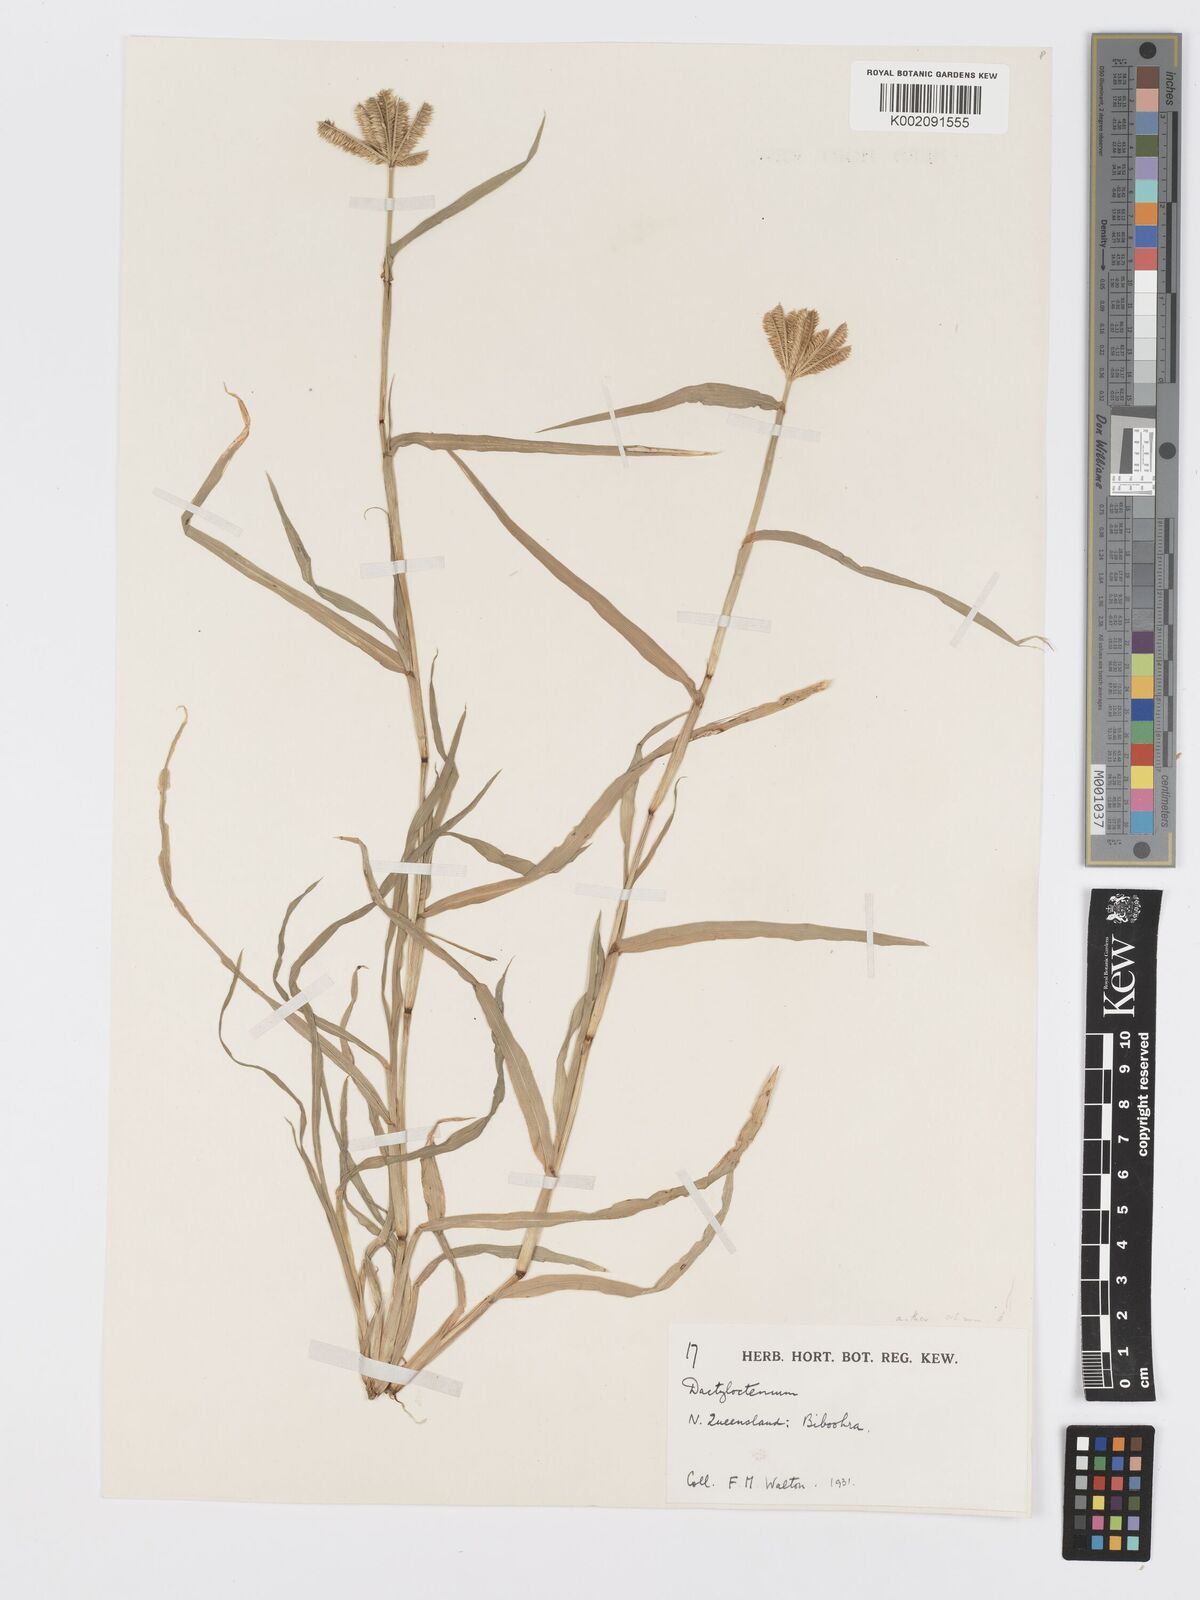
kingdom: Plantae
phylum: Tracheophyta
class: Liliopsida
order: Poales
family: Poaceae
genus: Dactyloctenium
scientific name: Dactyloctenium radulans
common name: Button-grass
